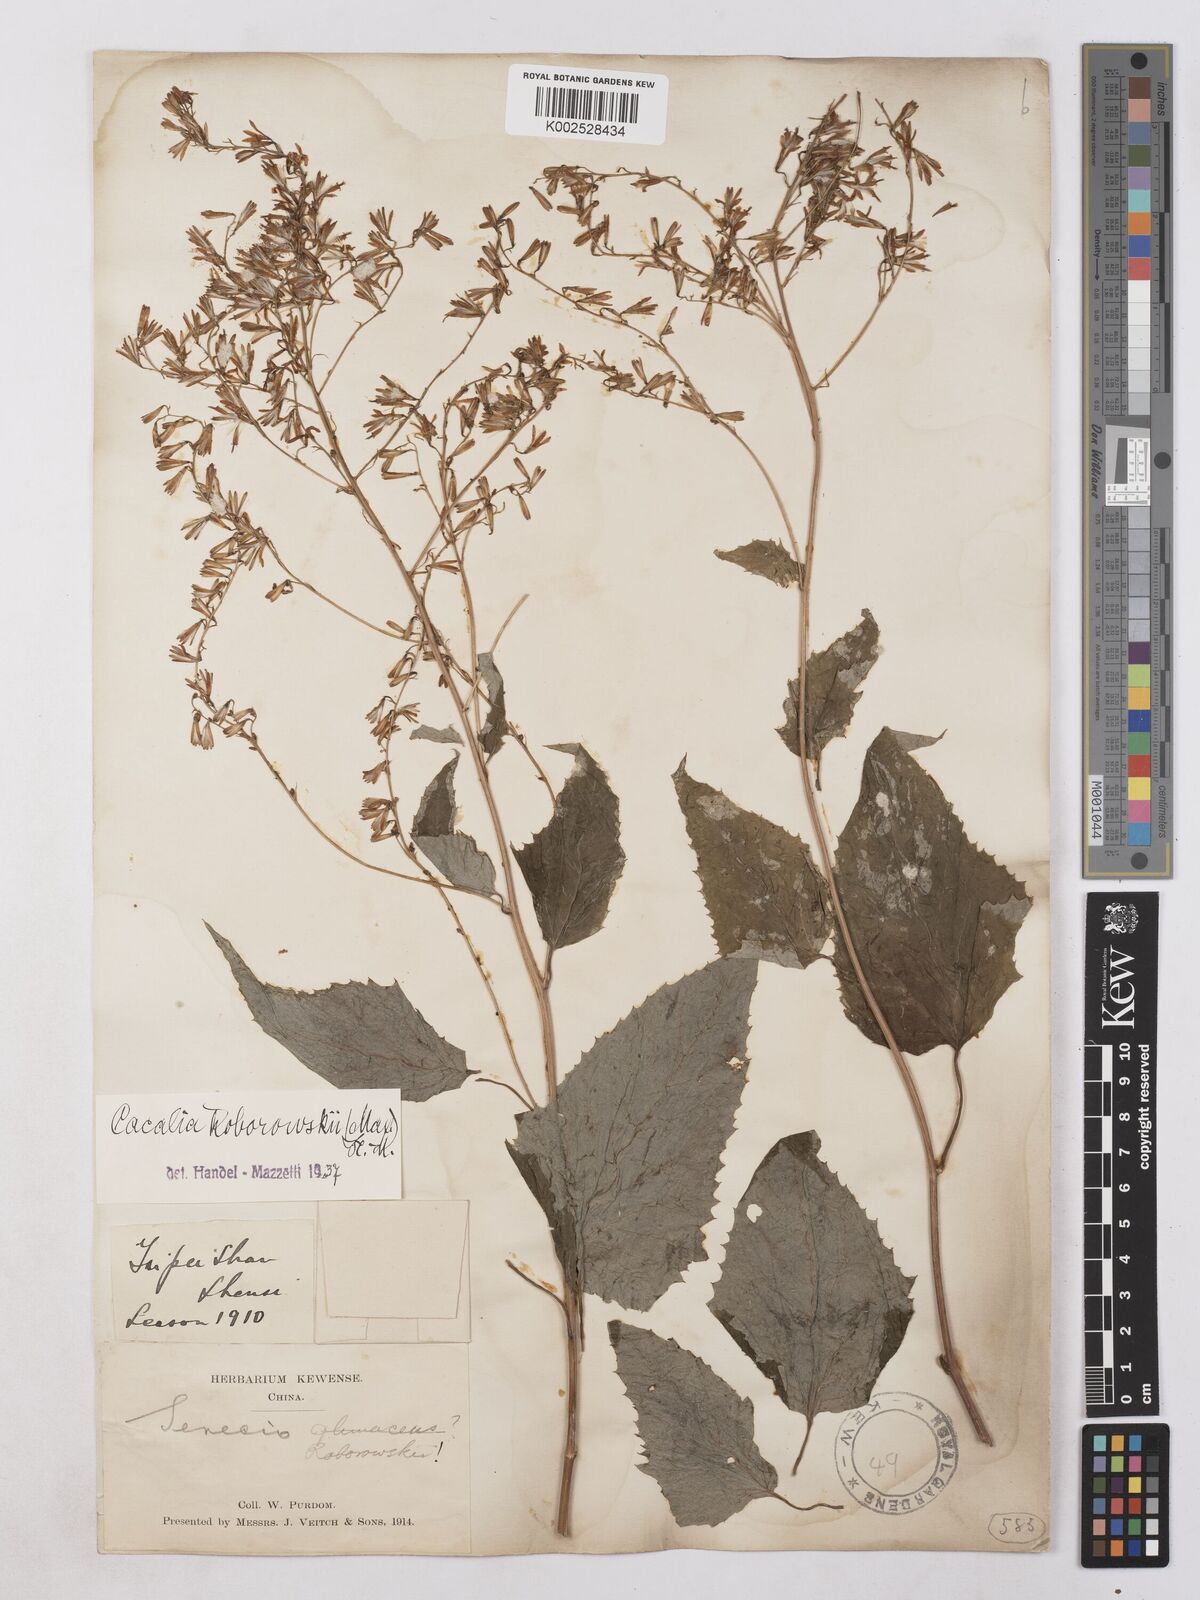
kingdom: Plantae
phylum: Tracheophyta
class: Magnoliopsida
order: Asterales
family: Asteraceae
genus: Parasenecio
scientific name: Parasenecio roborowskii
